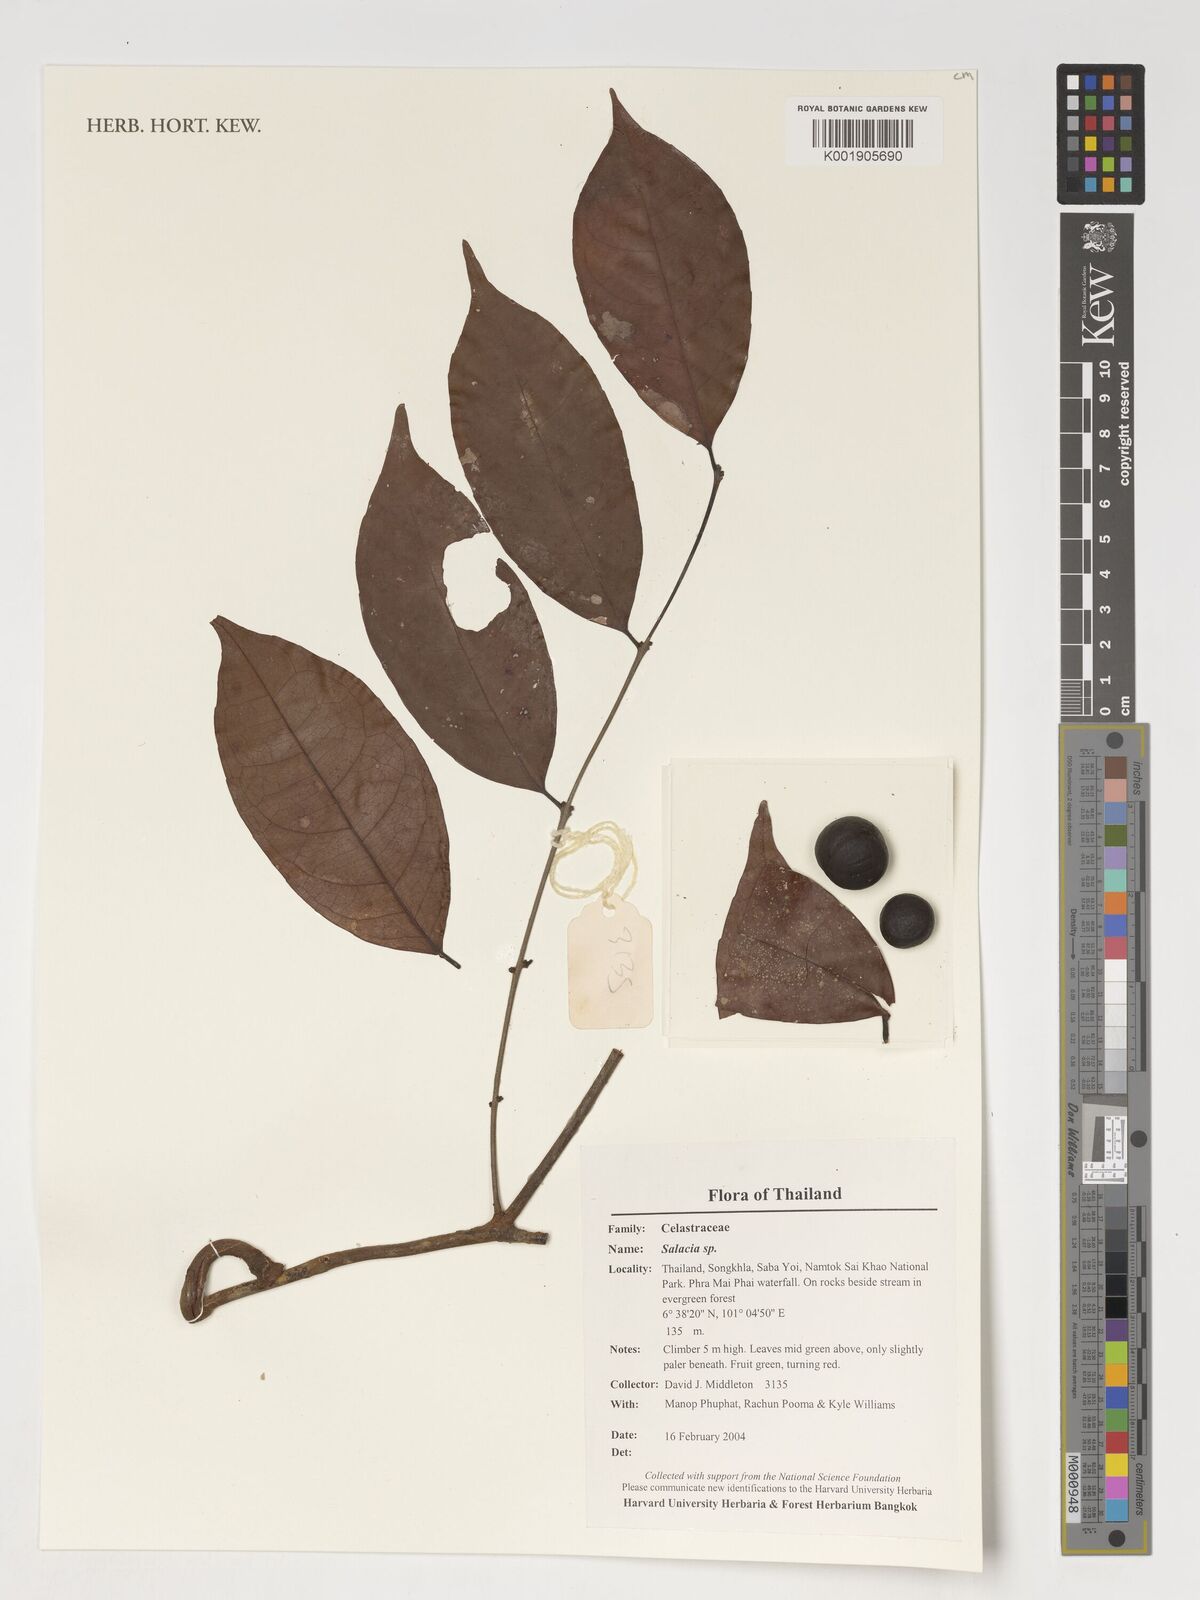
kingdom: Plantae
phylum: Tracheophyta
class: Magnoliopsida
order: Celastrales
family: Celastraceae
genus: Salacia
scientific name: Salacia
